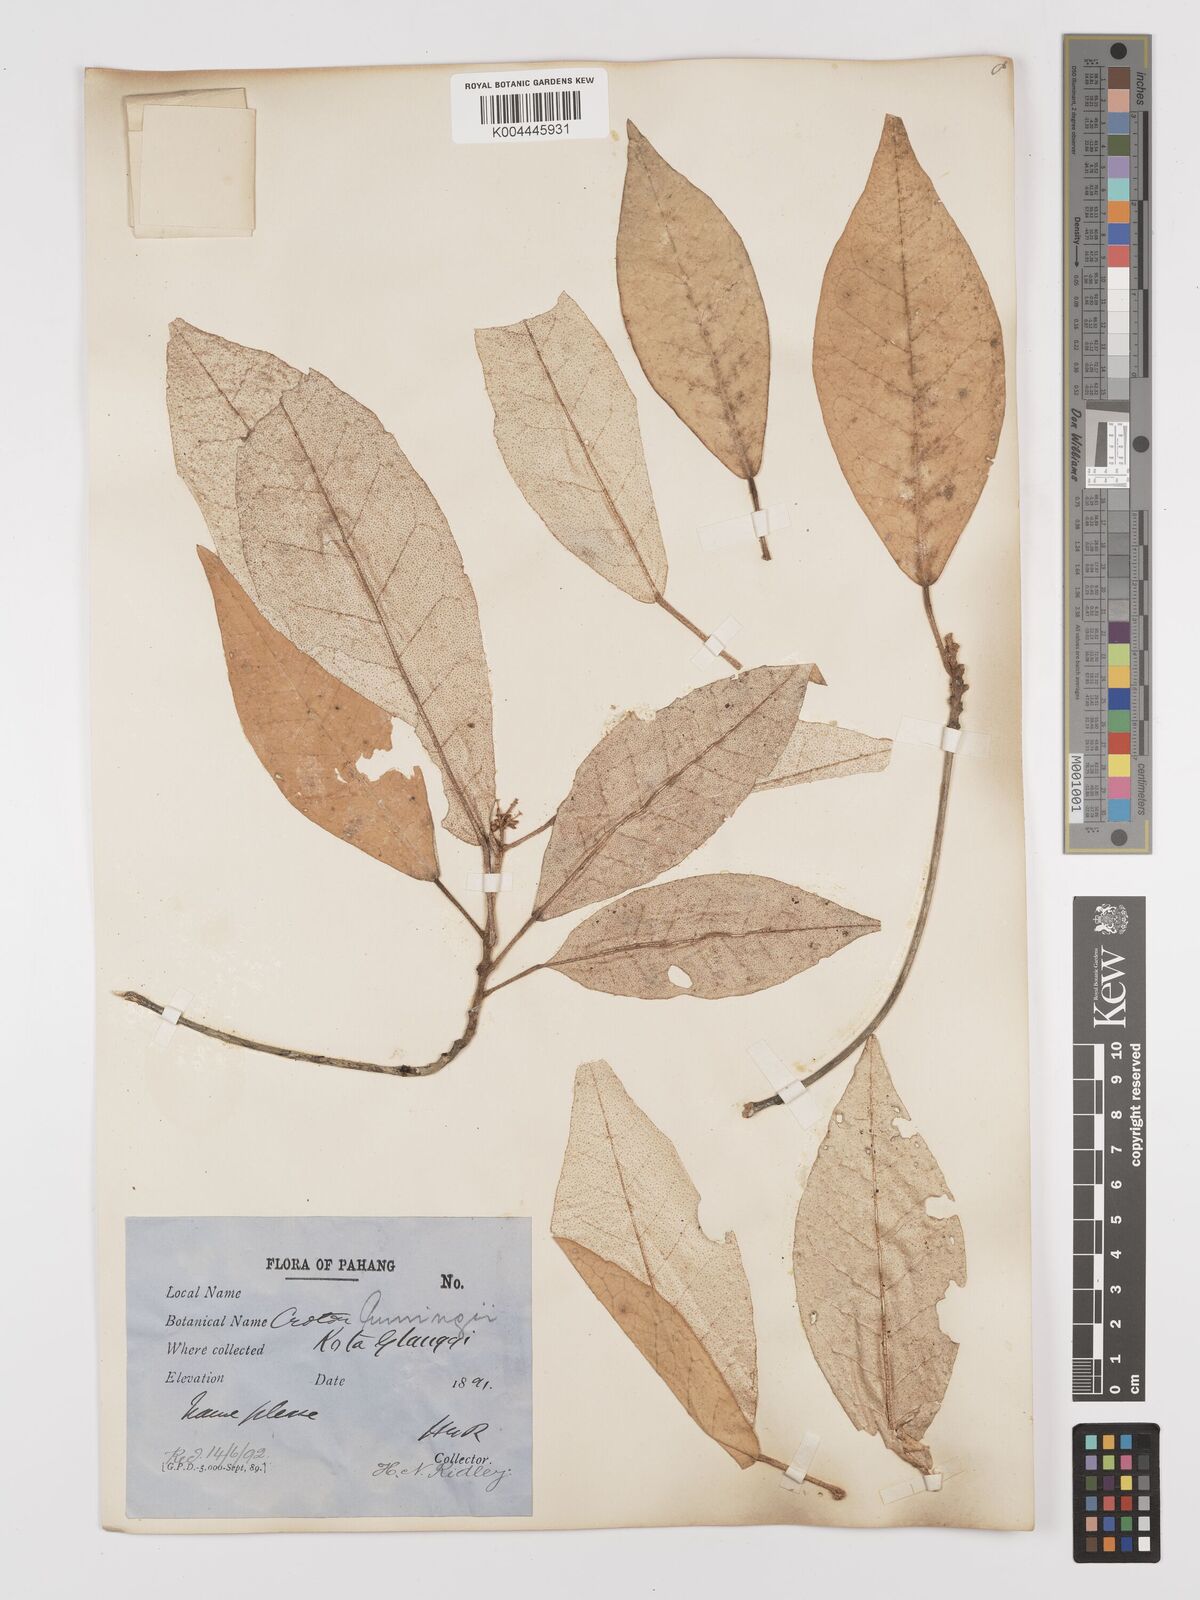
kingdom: Plantae
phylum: Tracheophyta
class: Magnoliopsida
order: Malpighiales
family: Euphorbiaceae
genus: Croton
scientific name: Croton cascarilloides
